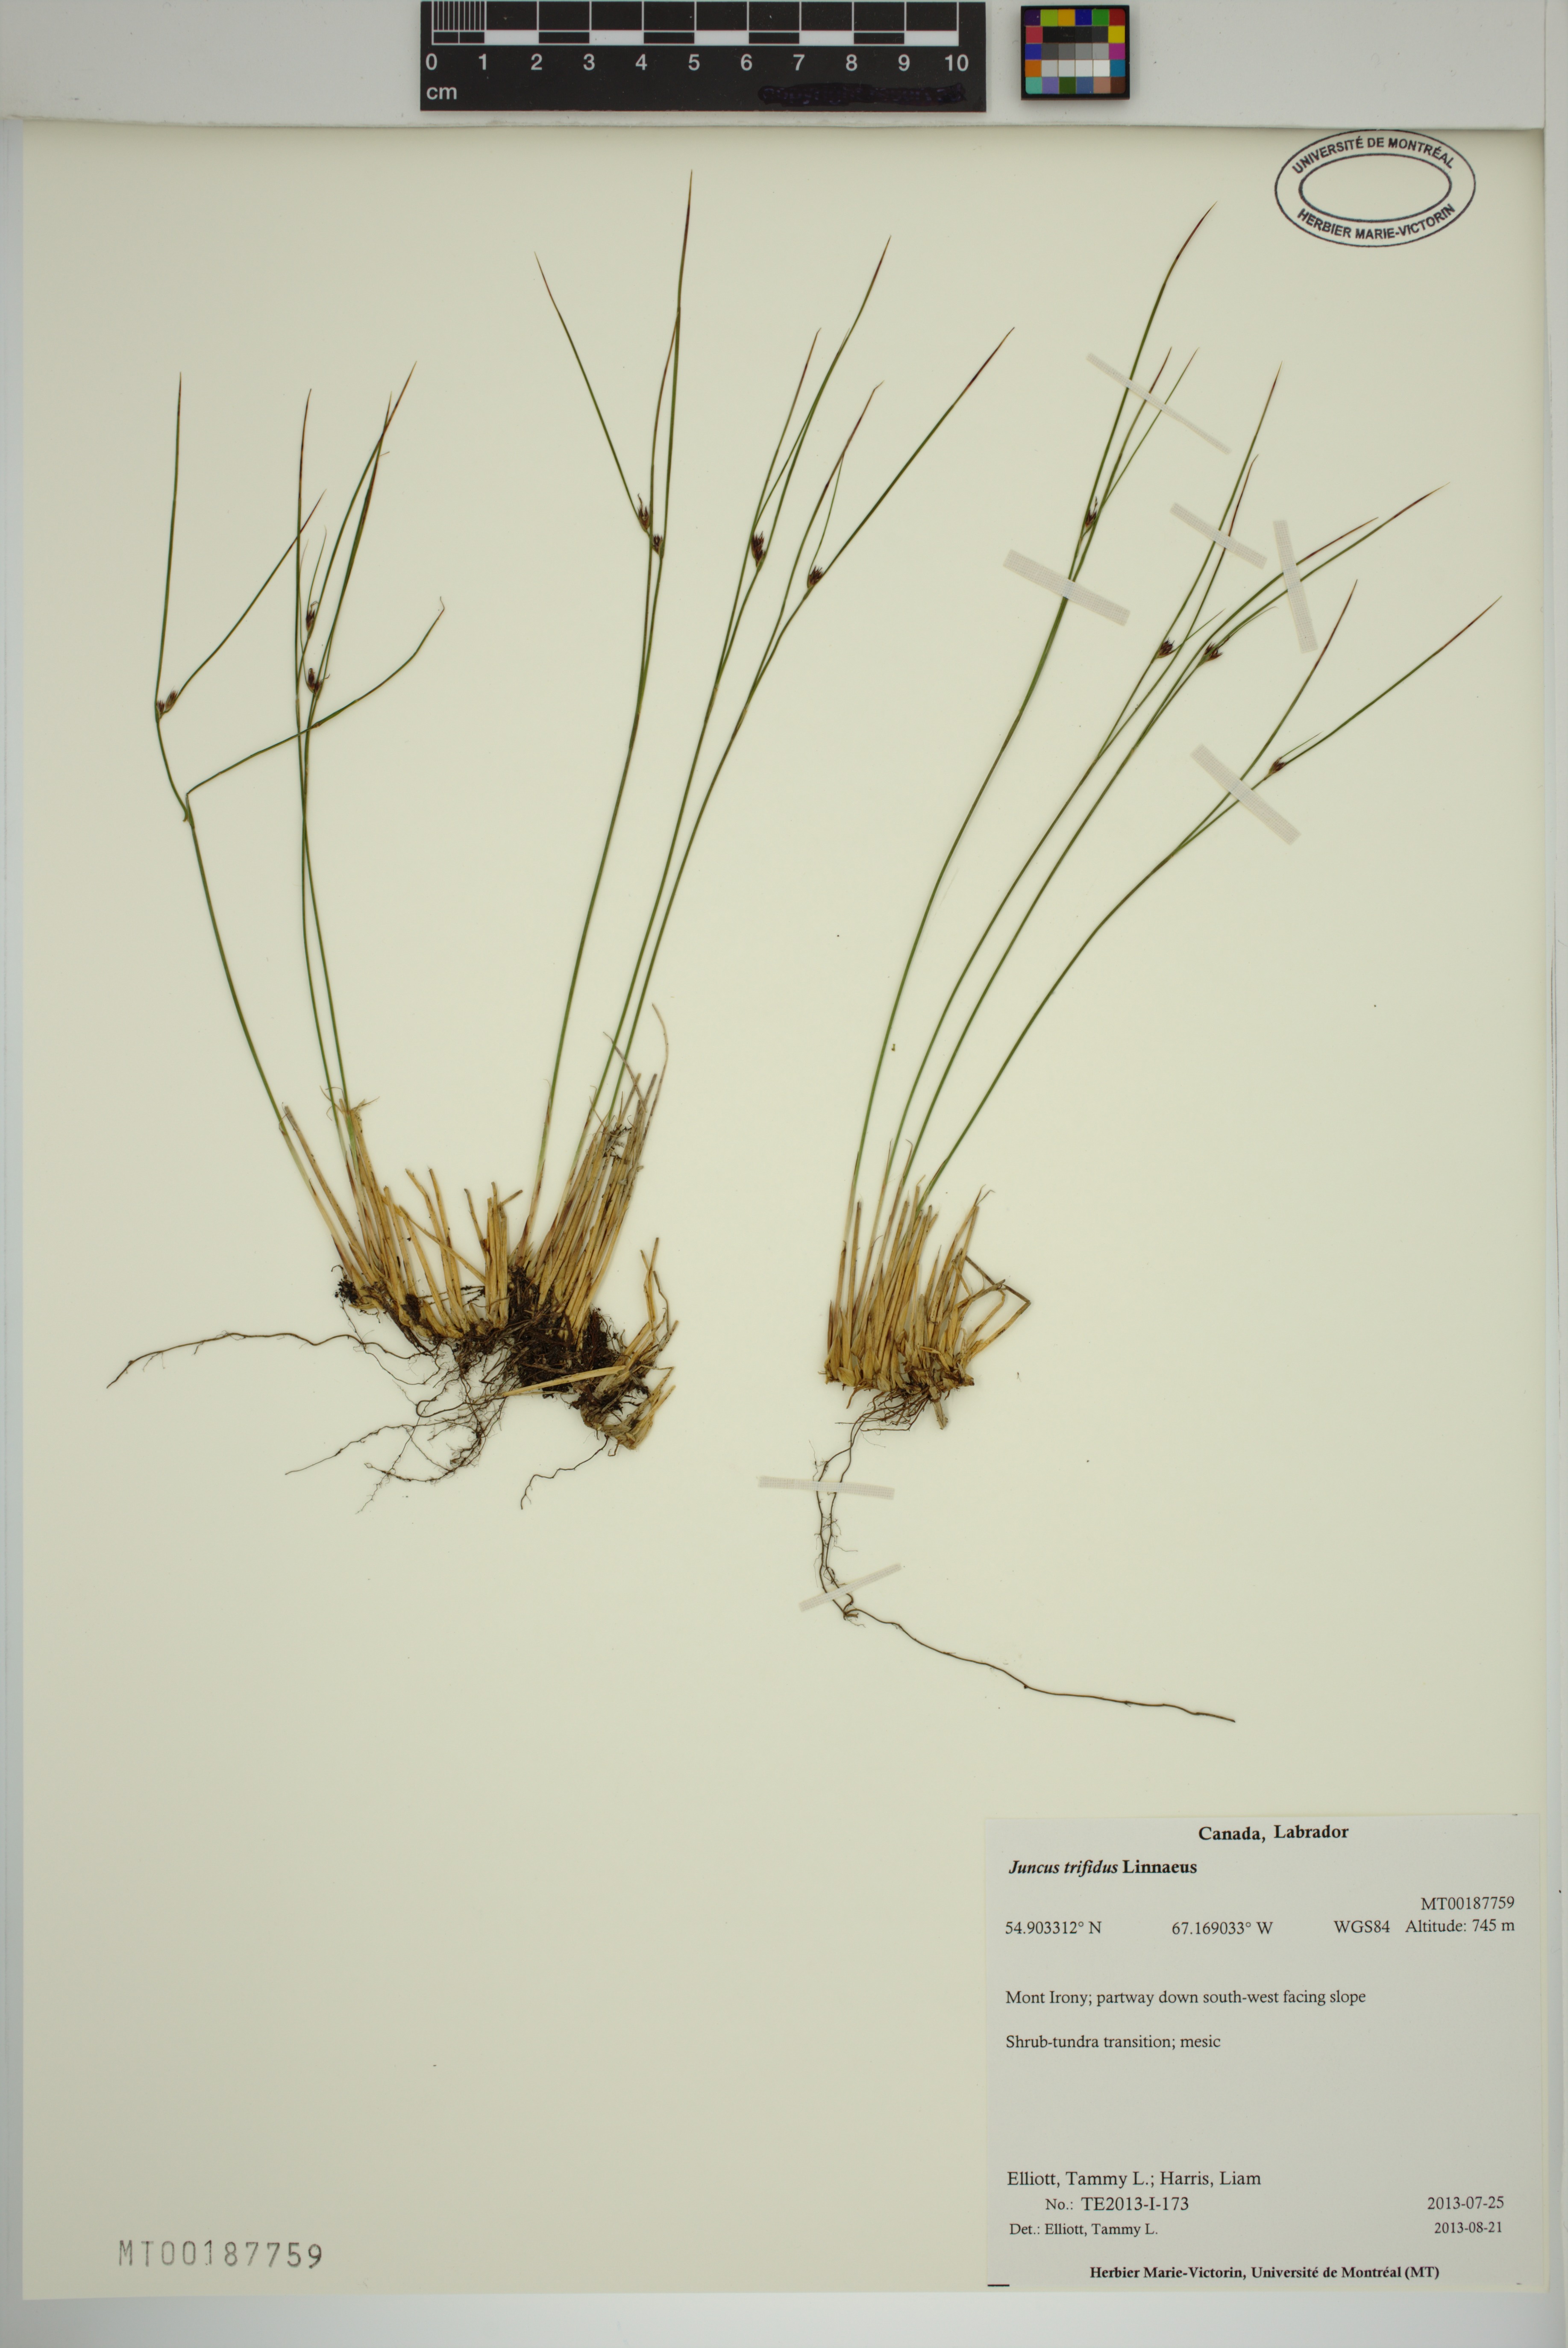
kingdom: Plantae
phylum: Tracheophyta
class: Liliopsida
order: Poales
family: Juncaceae
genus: Oreojuncus
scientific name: Oreojuncus trifidus
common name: Highland rush
